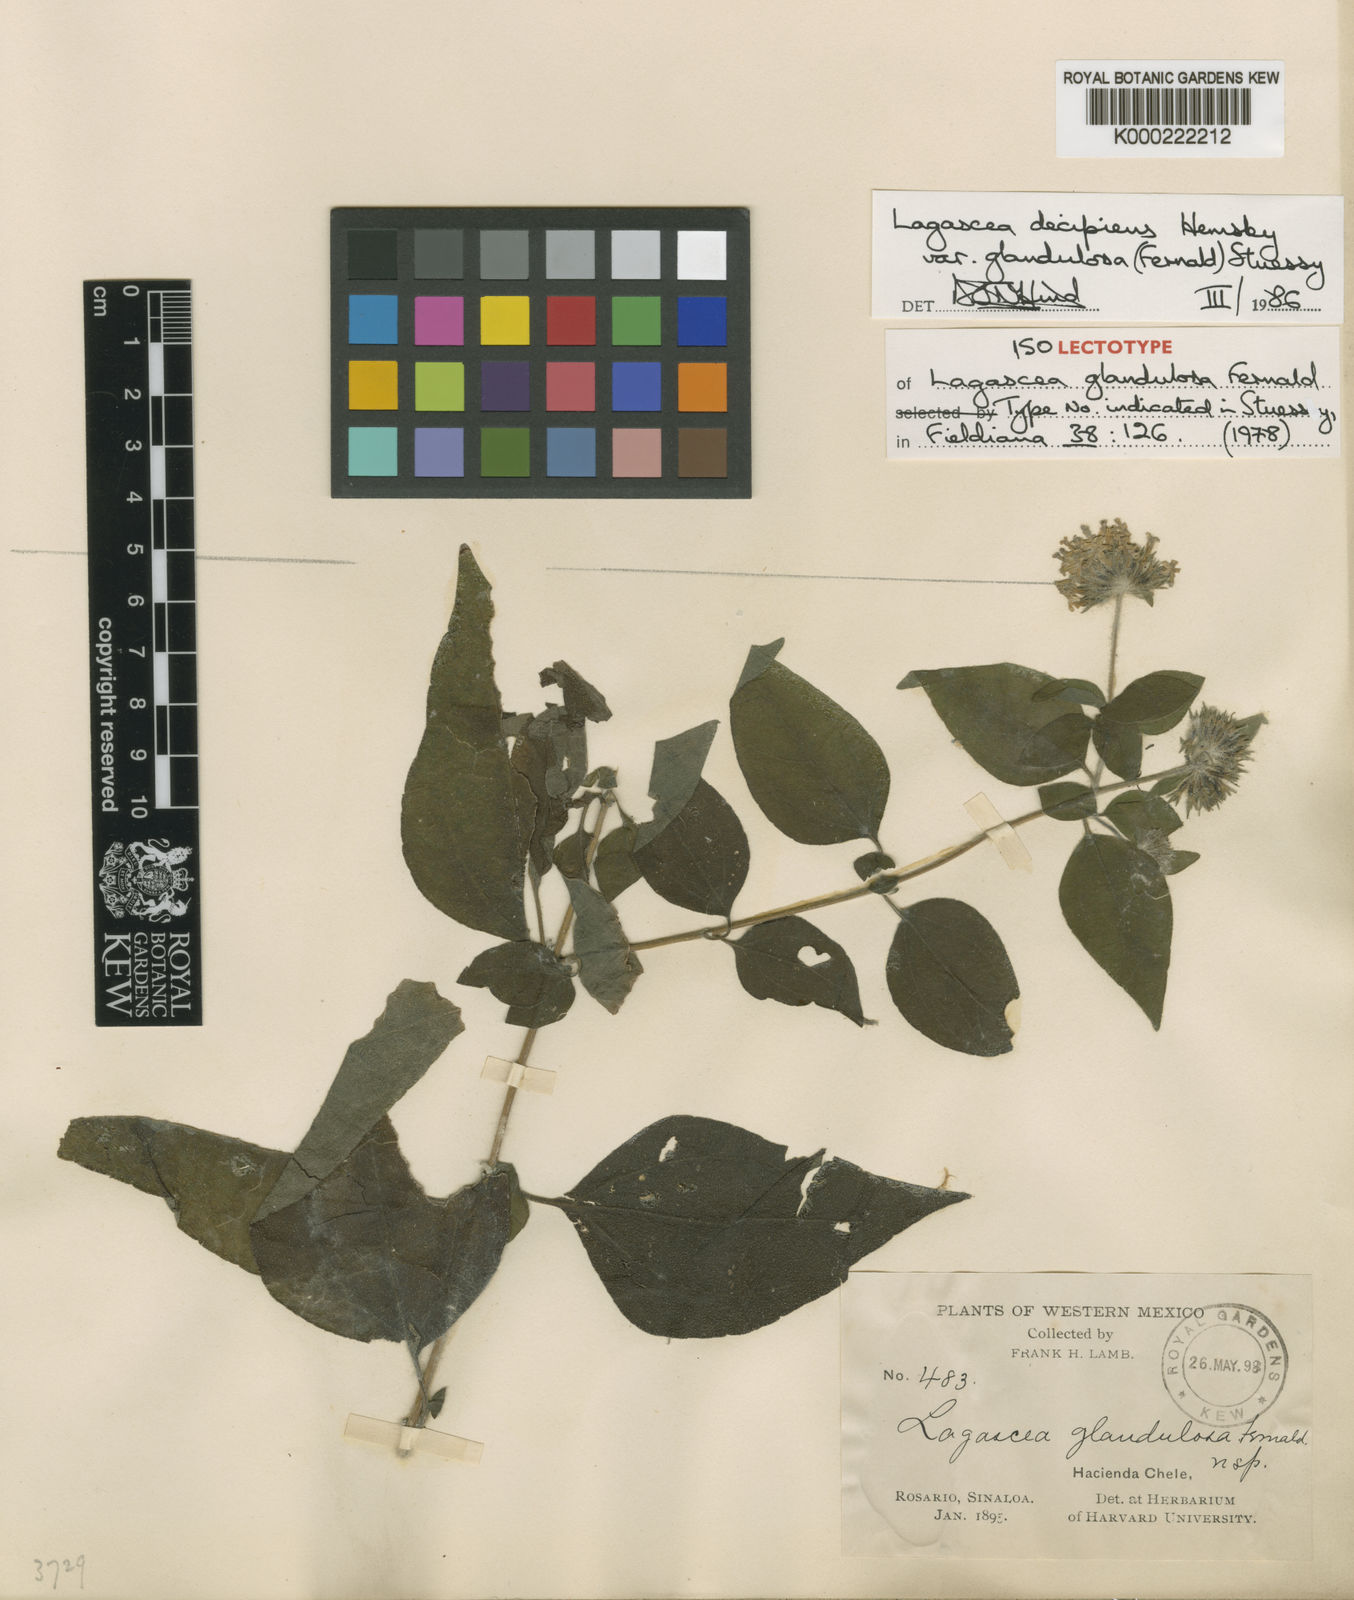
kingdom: Plantae
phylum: Tracheophyta
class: Magnoliopsida
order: Asterales
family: Asteraceae
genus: Lagascea
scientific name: Lagascea decipiens
